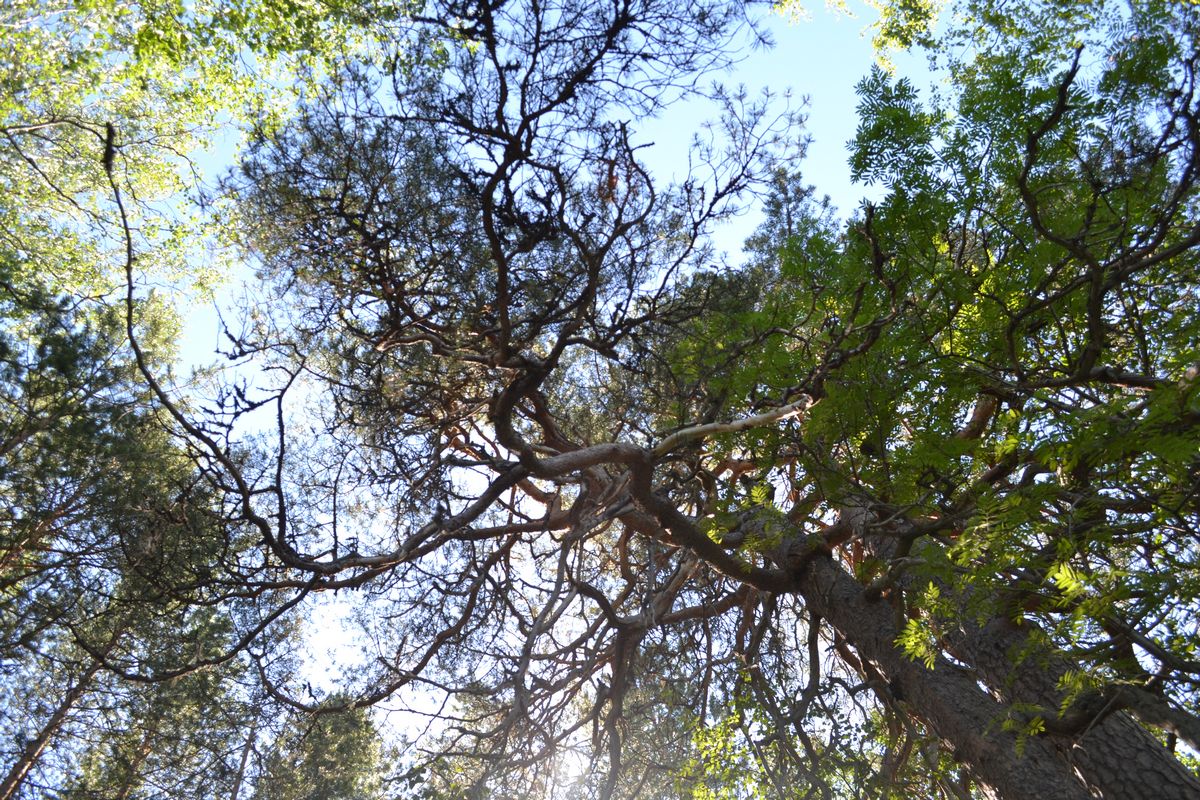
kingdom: Plantae
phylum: Tracheophyta
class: Pinopsida
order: Pinales
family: Pinaceae
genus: Pinus
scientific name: Pinus sylvestris
